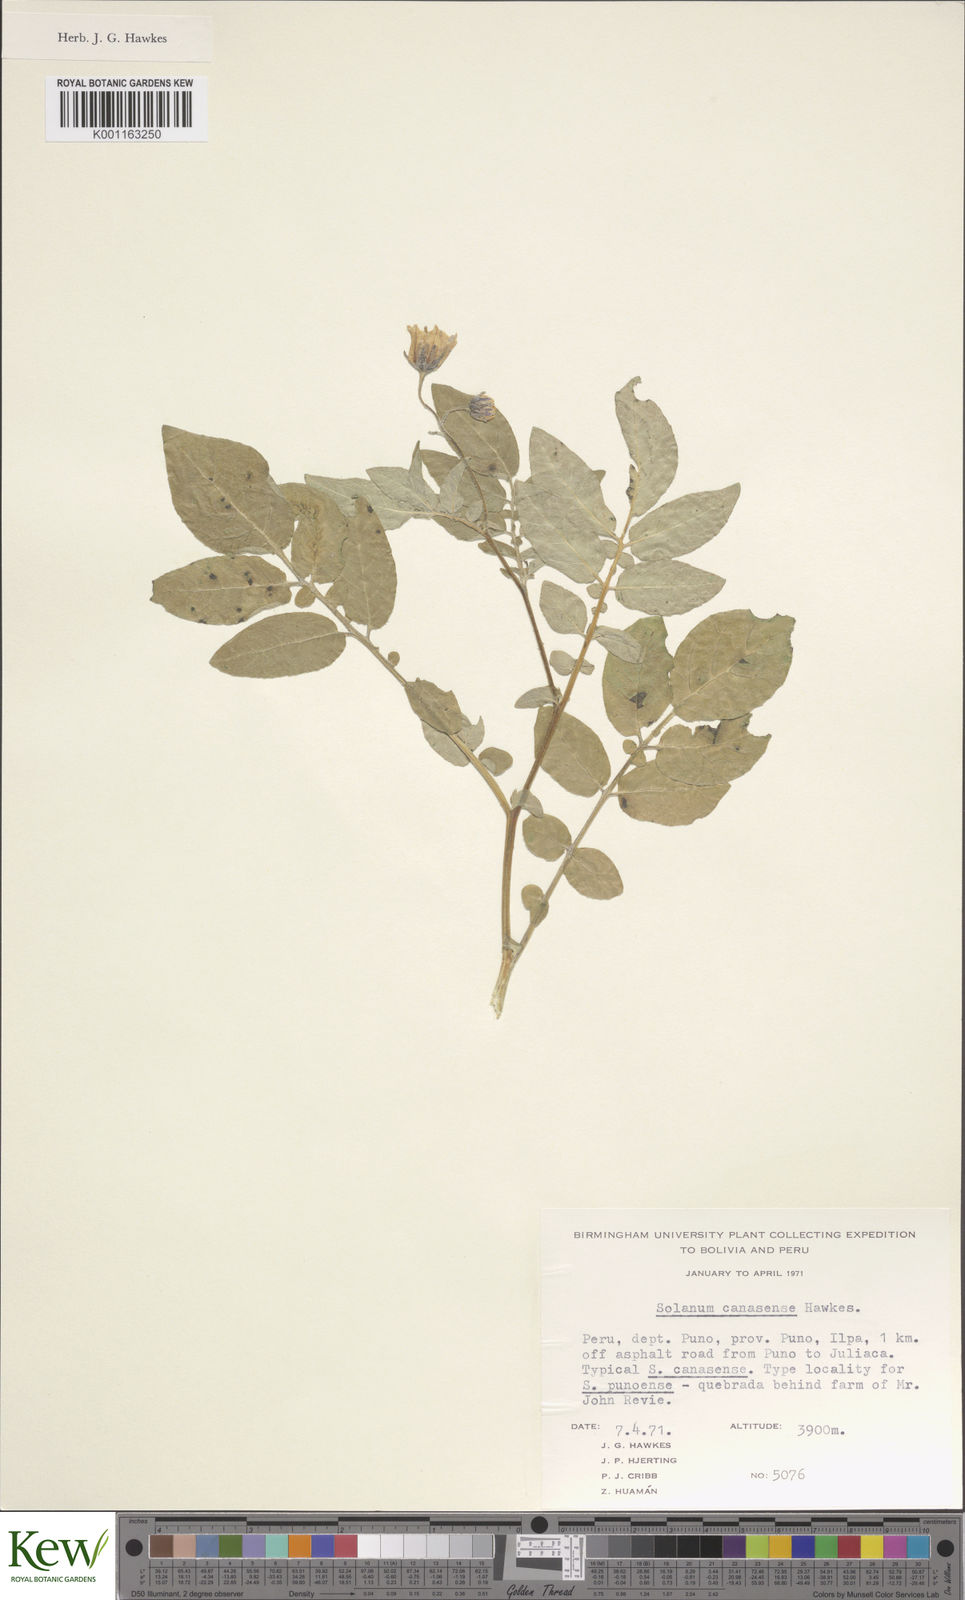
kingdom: Plantae
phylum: Tracheophyta
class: Magnoliopsida
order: Solanales
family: Solanaceae
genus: Solanum
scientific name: Solanum candolleanum
